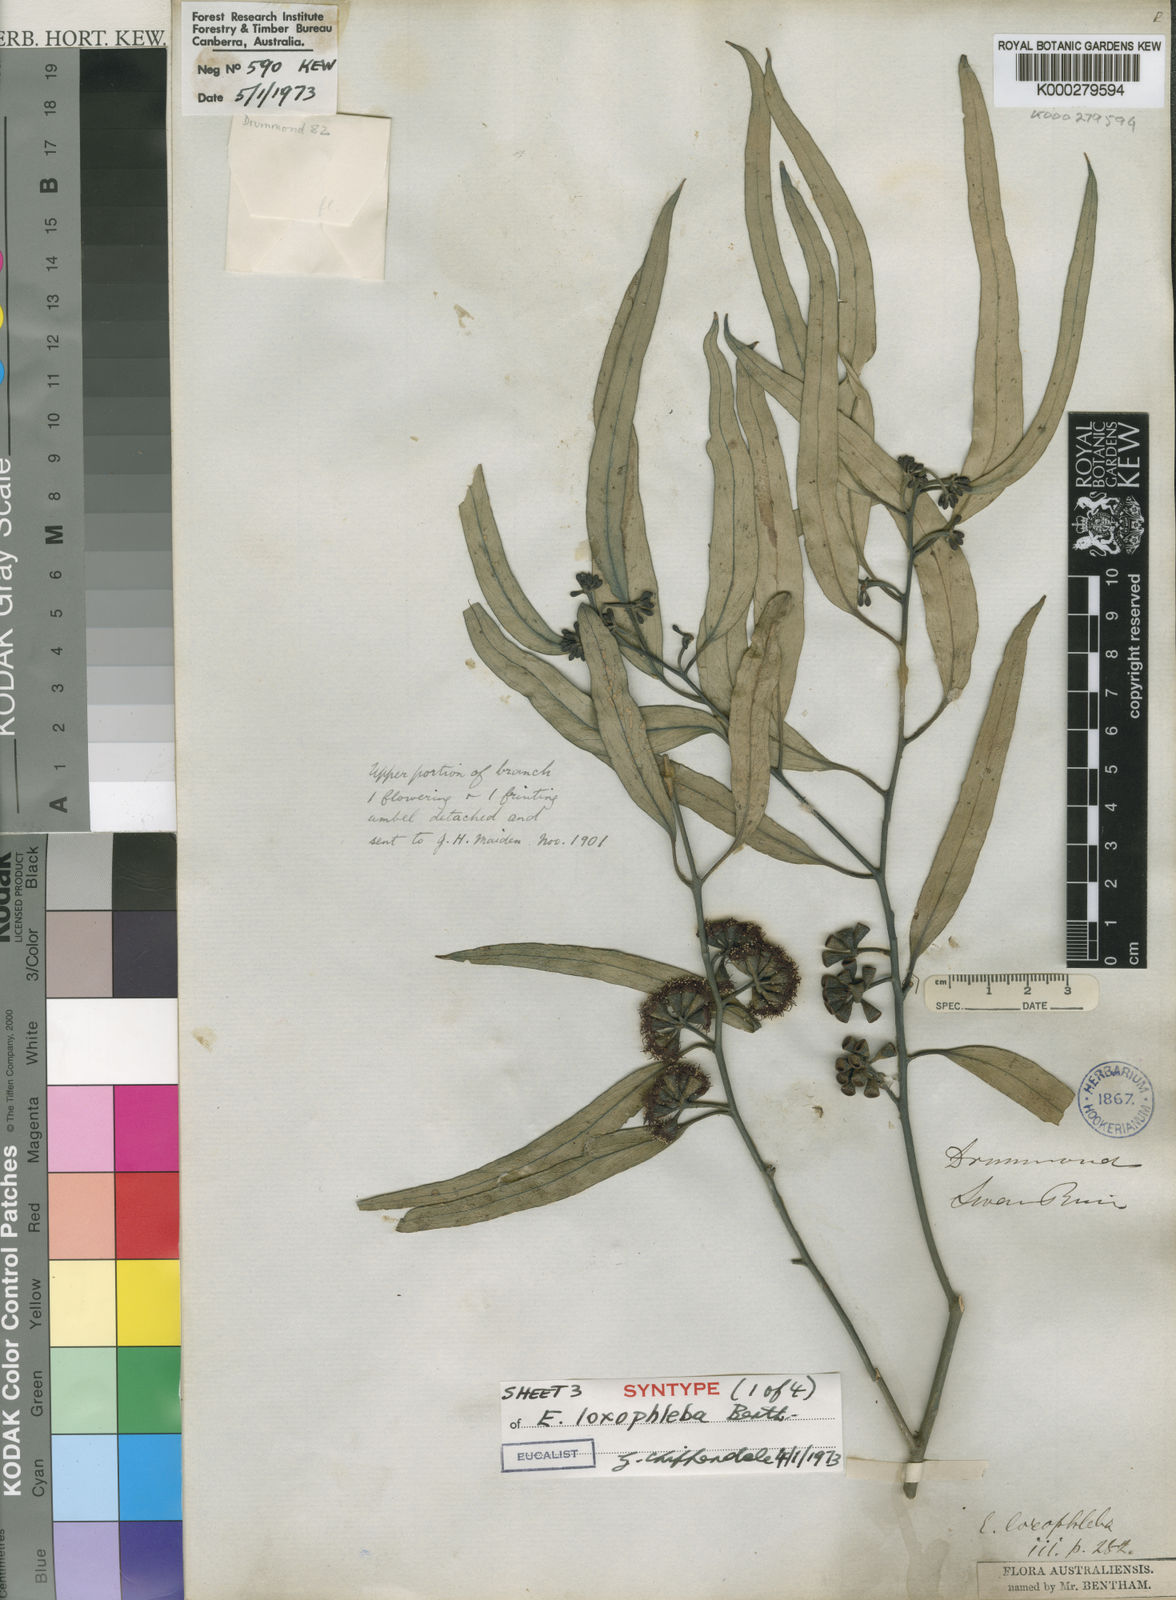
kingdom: Plantae
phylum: Tracheophyta
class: Magnoliopsida
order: Myrtales
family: Myrtaceae
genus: Eucalyptus
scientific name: Eucalyptus loxophleba
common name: York gum
